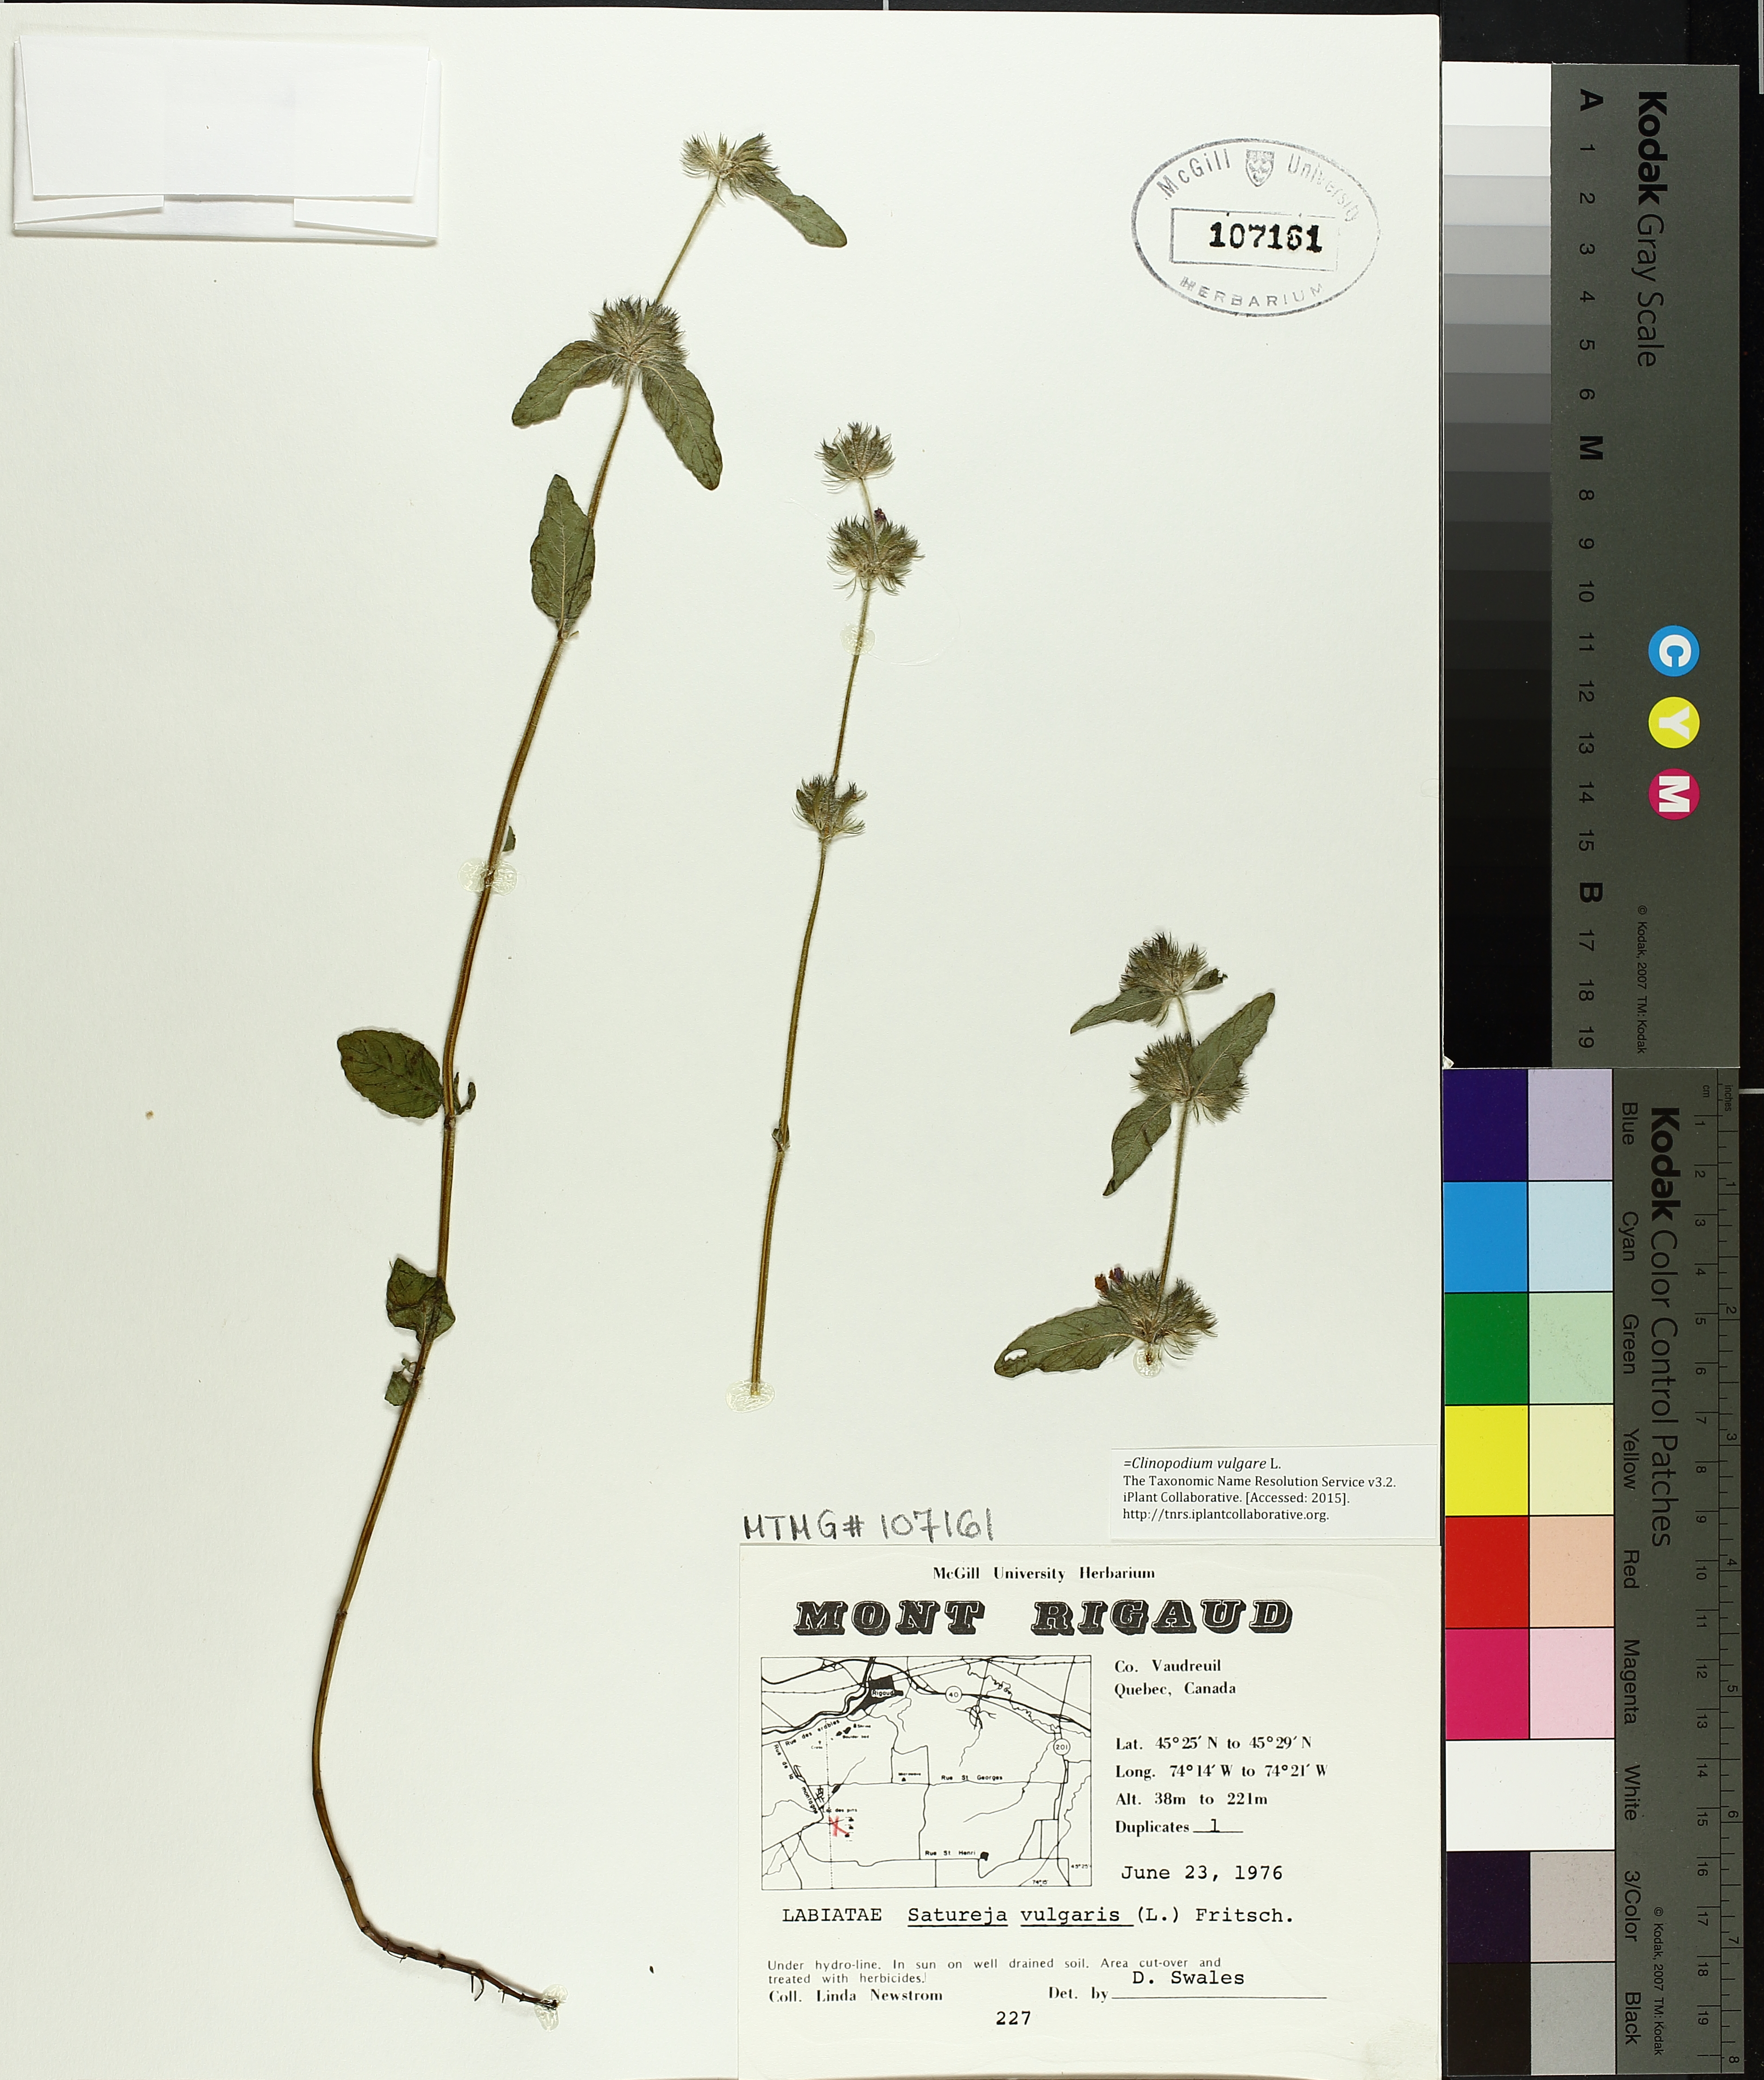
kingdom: Plantae
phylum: Tracheophyta
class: Magnoliopsida
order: Lamiales
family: Lamiaceae
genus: Clinopodium
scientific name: Clinopodium vulgare
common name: Wild basil
